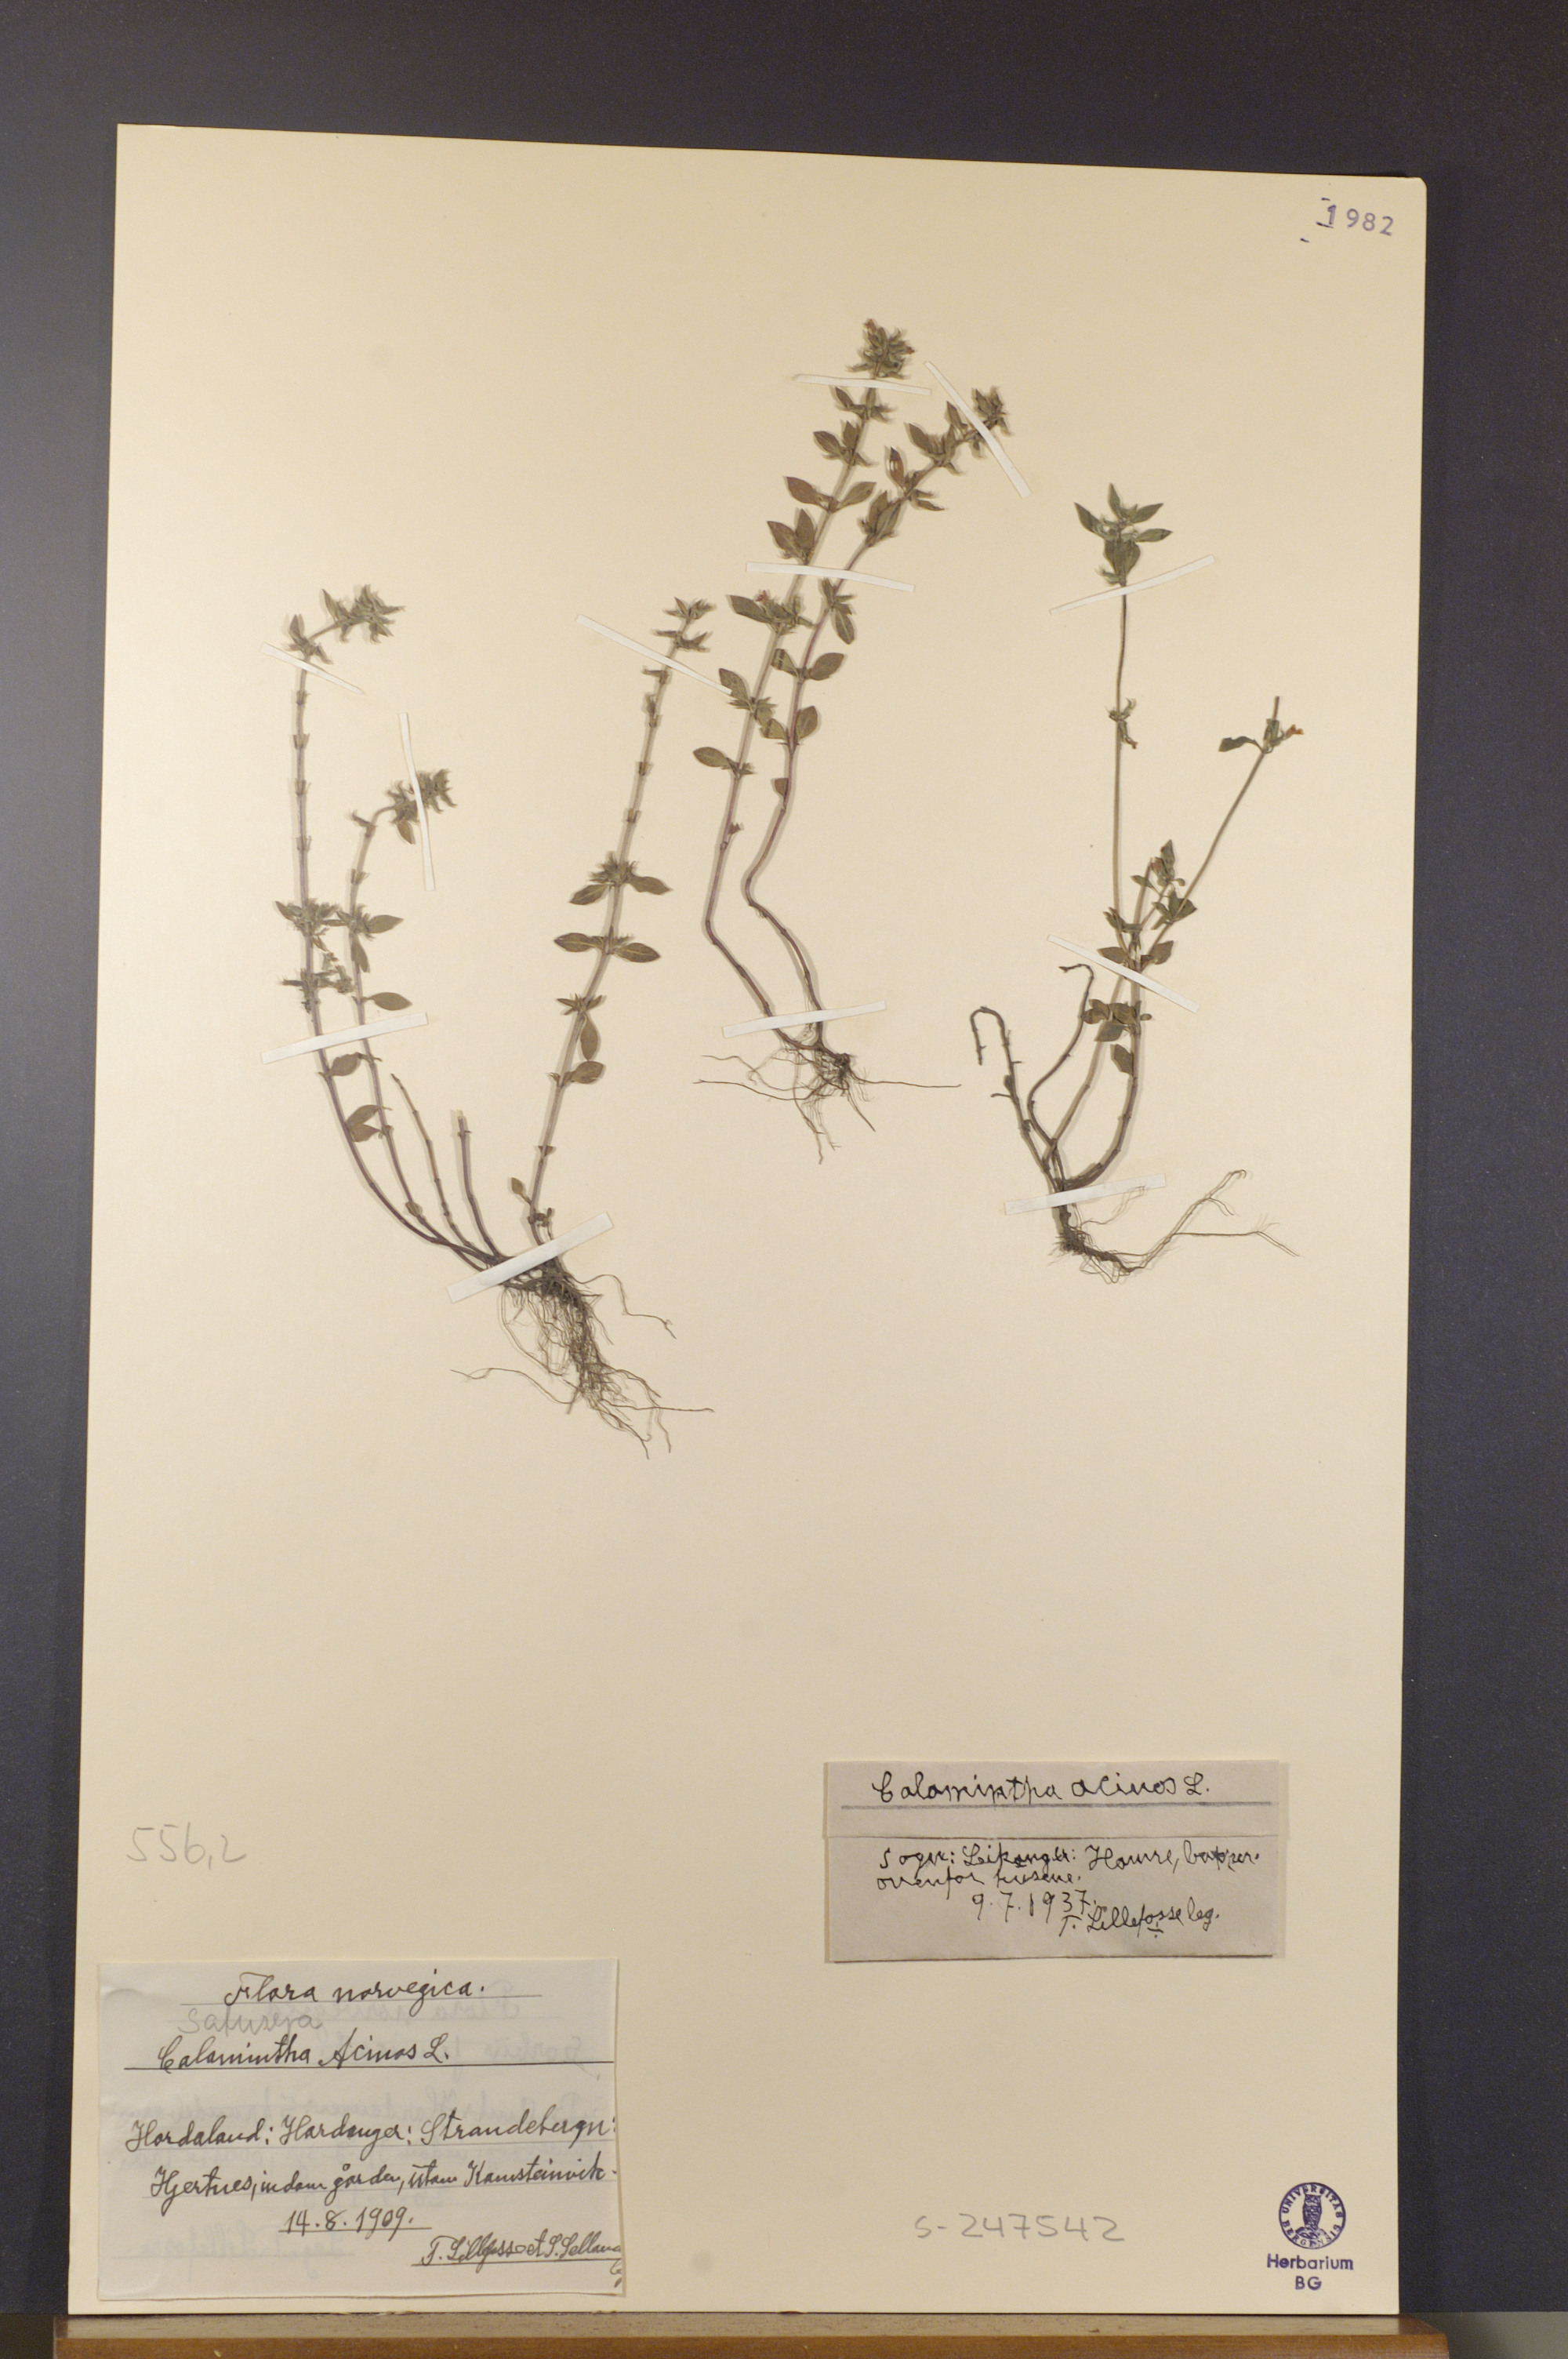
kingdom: Plantae
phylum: Tracheophyta
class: Magnoliopsida
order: Lamiales
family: Lamiaceae
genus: Clinopodium
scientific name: Clinopodium acinos
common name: Basil thyme
